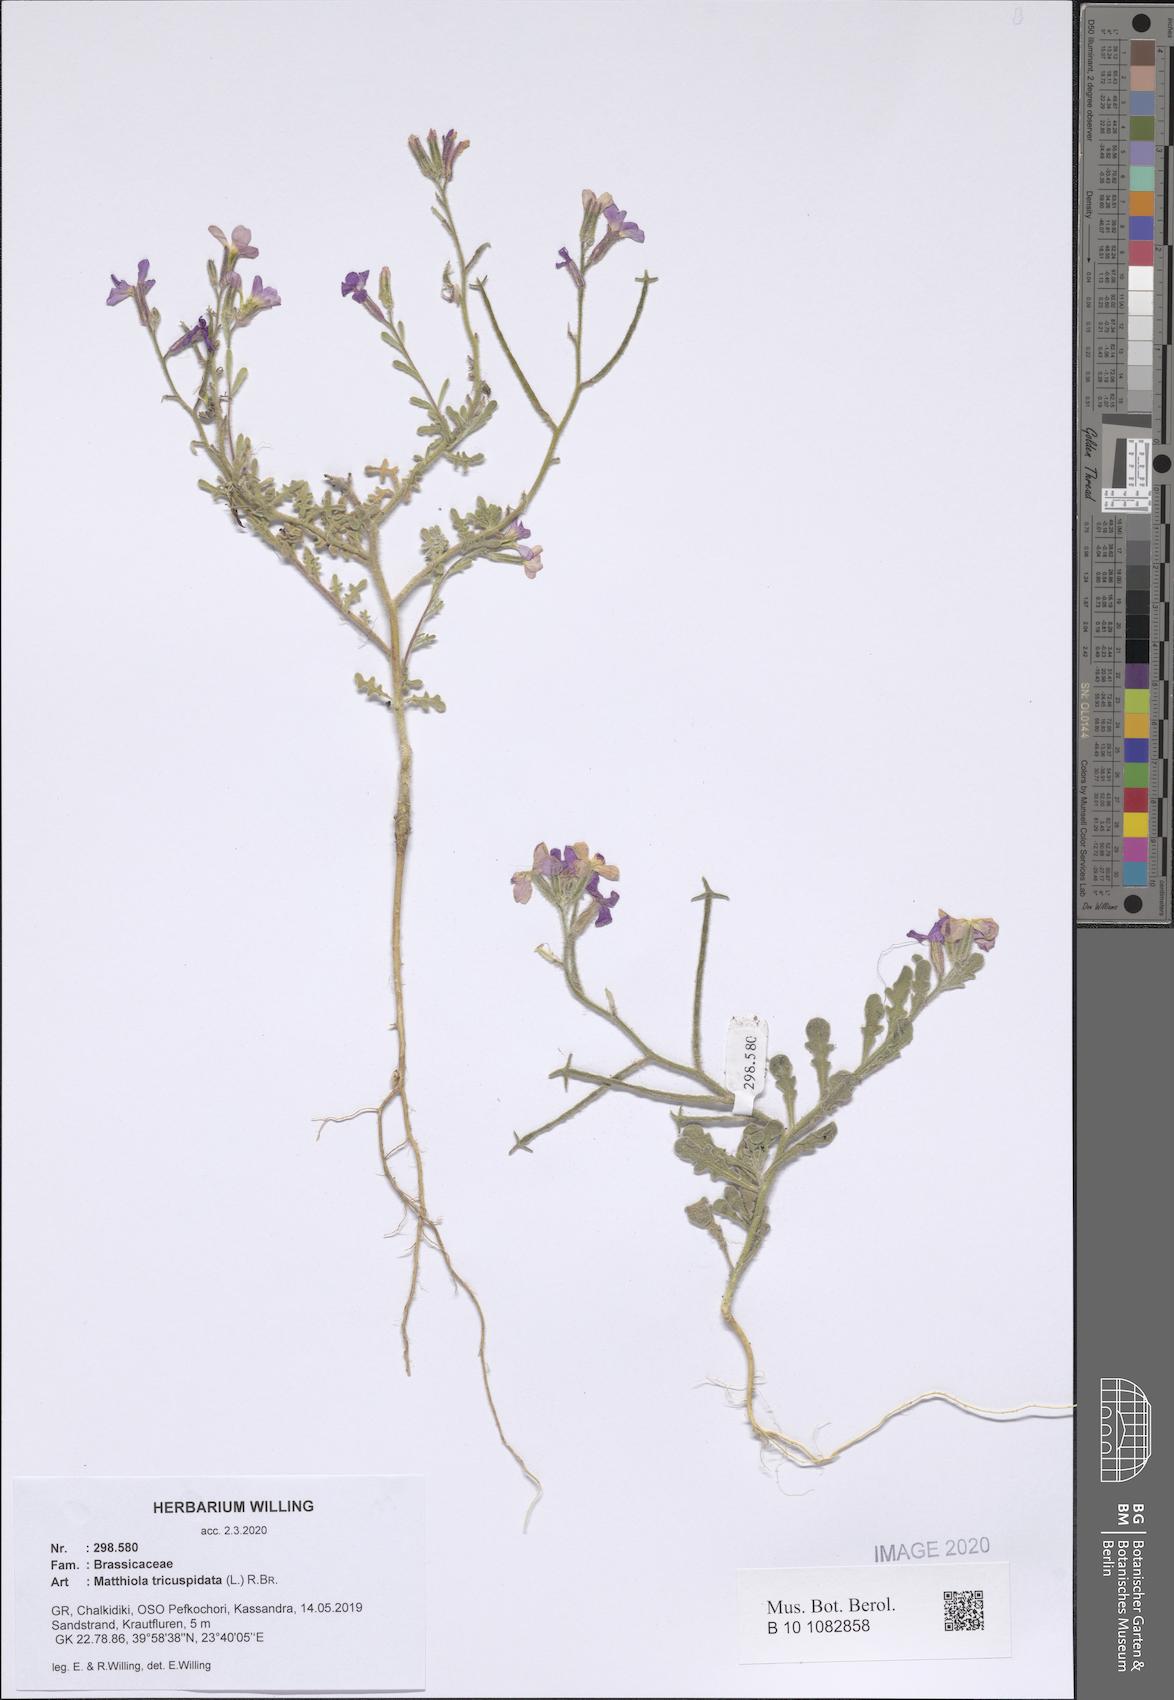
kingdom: Plantae
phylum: Tracheophyta
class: Magnoliopsida
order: Brassicales
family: Brassicaceae
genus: Matthiola
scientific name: Matthiola tricuspidata
